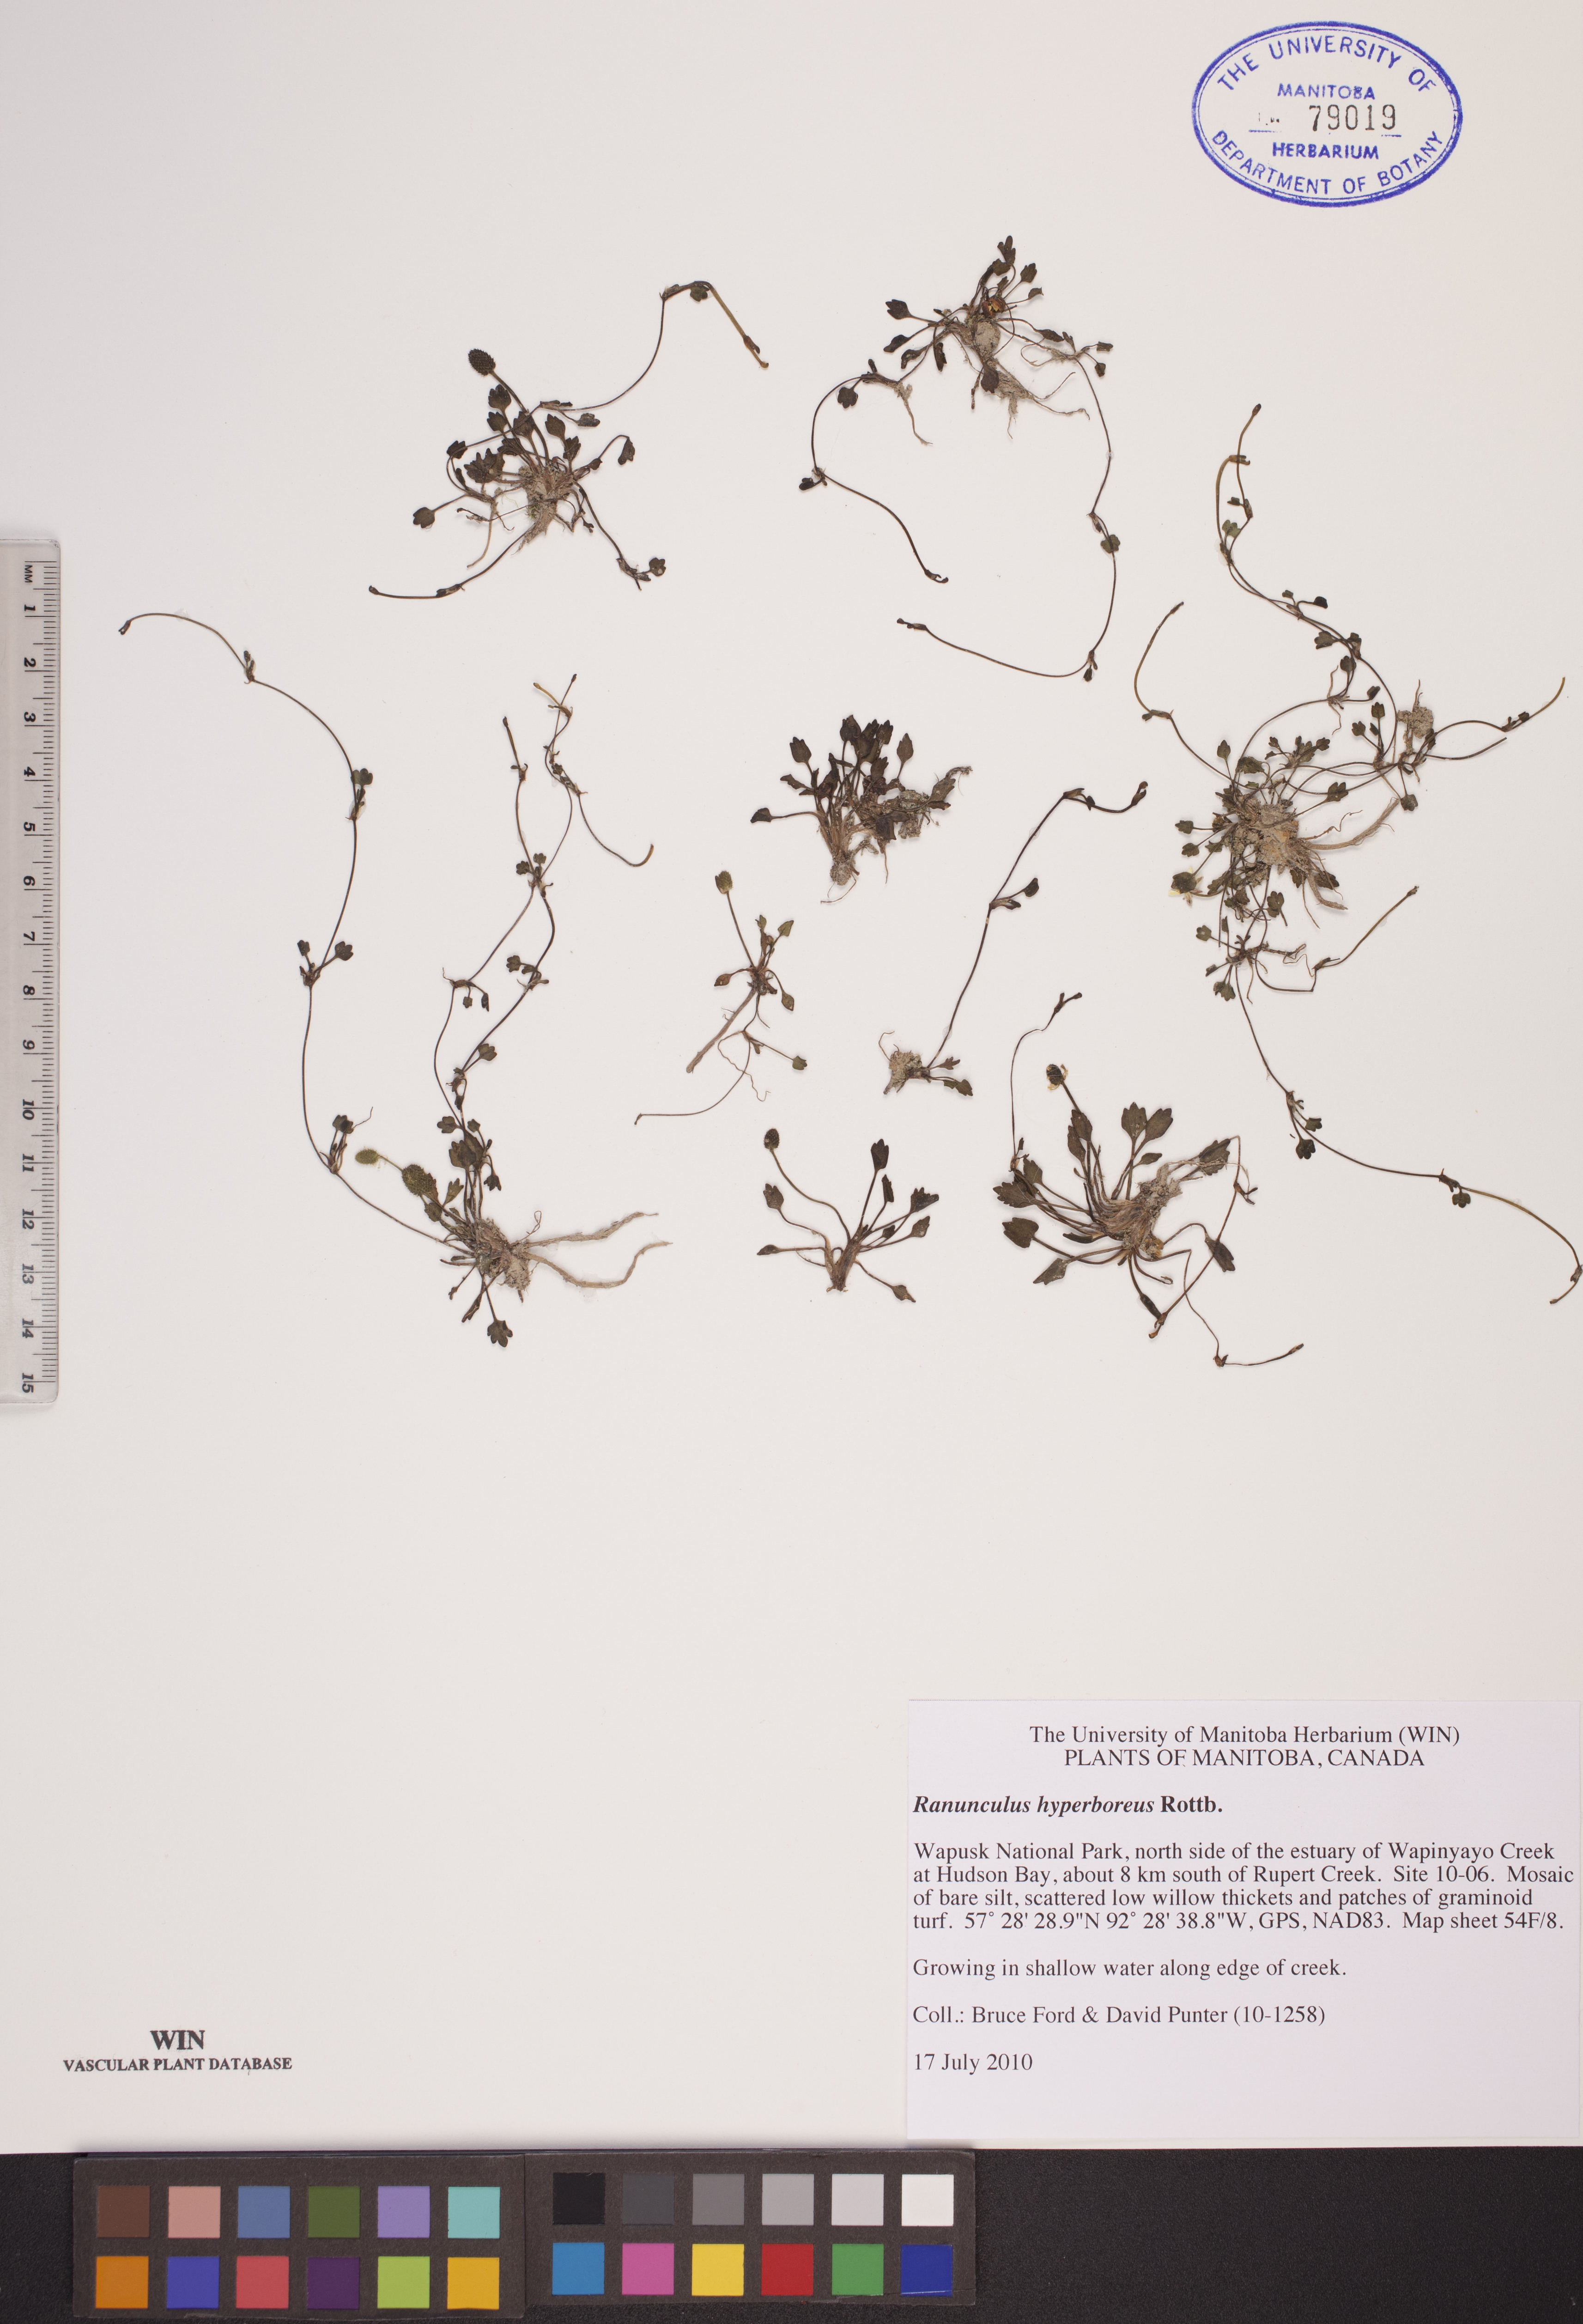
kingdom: Plantae
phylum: Tracheophyta
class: Magnoliopsida
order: Ranunculales
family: Ranunculaceae
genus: Ranunculus
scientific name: Ranunculus hyperboreus
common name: Arctic buttercup
